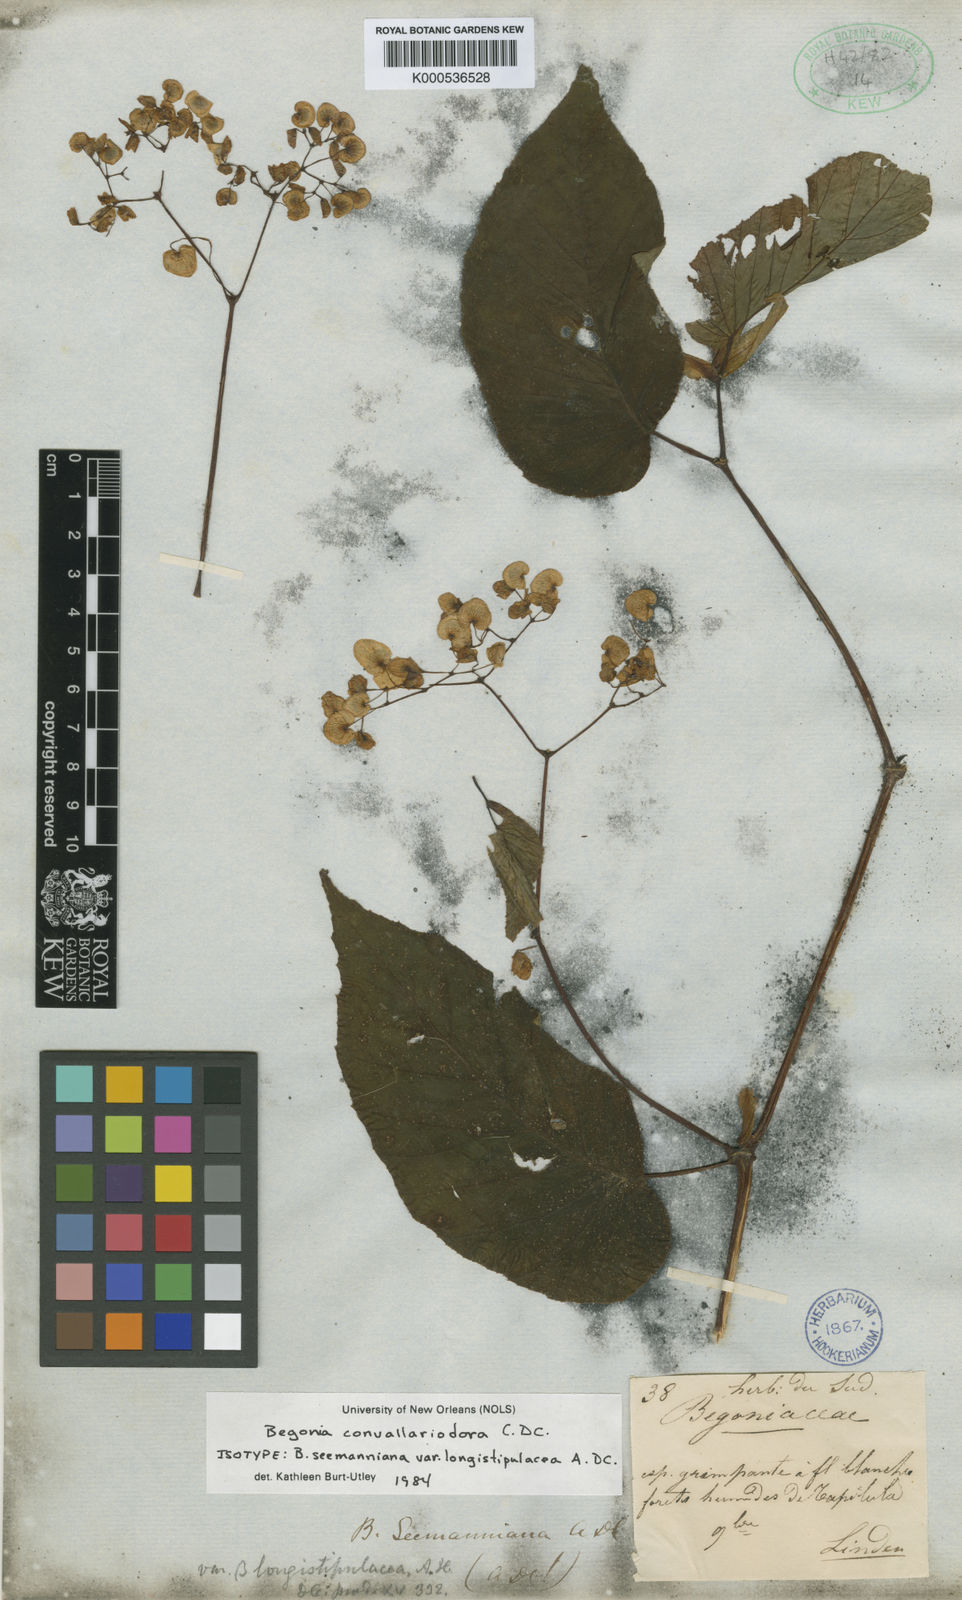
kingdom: Plantae
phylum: Tracheophyta
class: Magnoliopsida
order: Cucurbitales
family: Begoniaceae
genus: Begonia
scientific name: Begonia seemanniana
